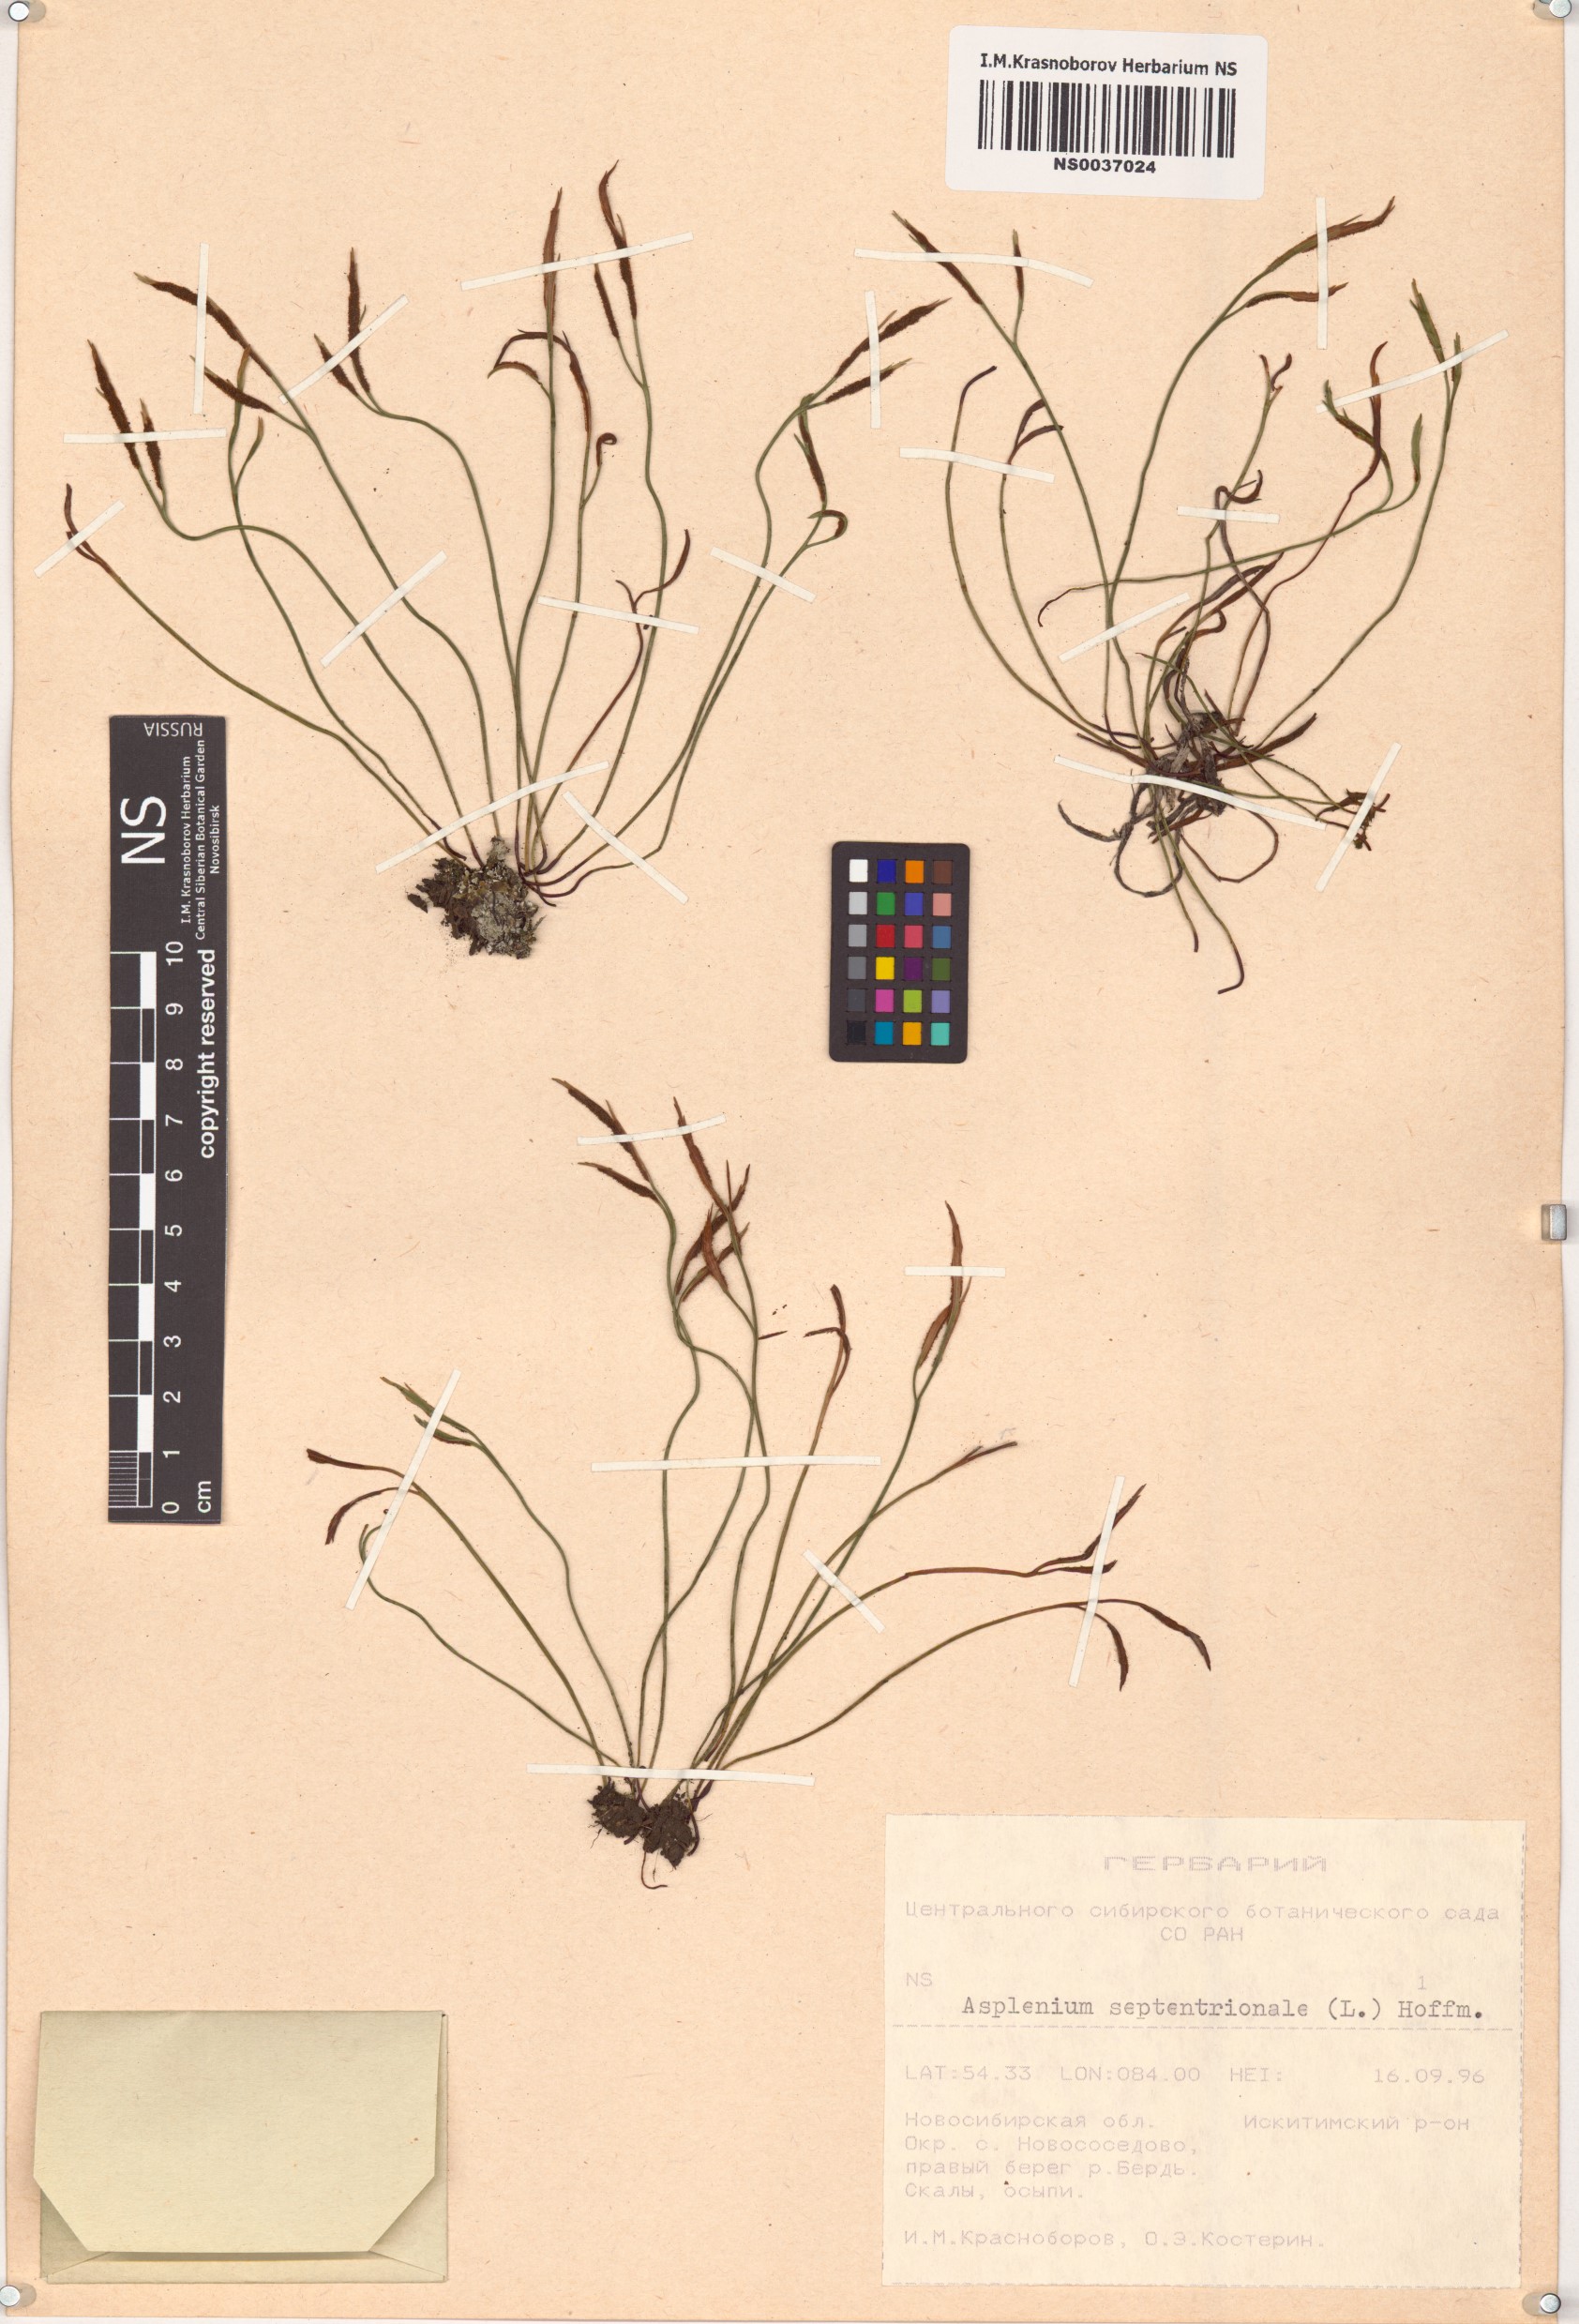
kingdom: Plantae
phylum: Tracheophyta
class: Polypodiopsida
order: Polypodiales
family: Aspleniaceae
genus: Asplenium
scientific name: Asplenium septentrionale
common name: Forked spleenwort
